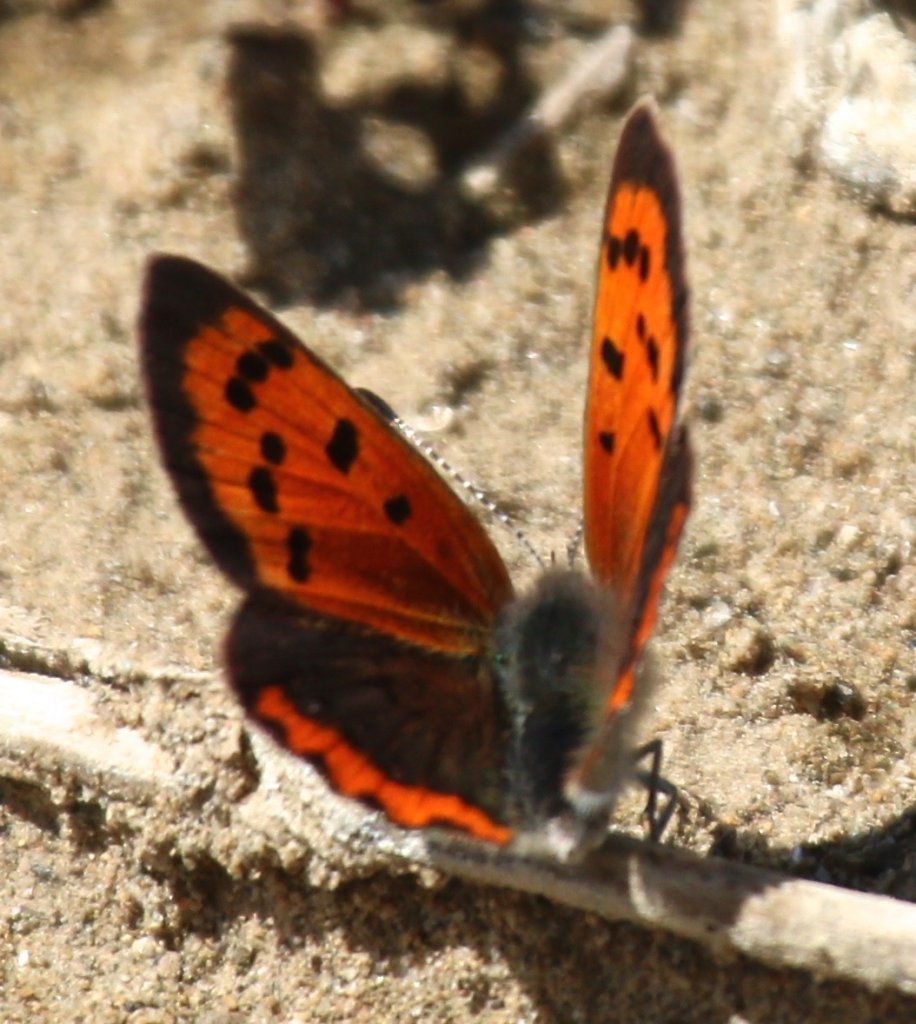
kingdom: Animalia
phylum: Arthropoda
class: Insecta
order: Lepidoptera
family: Lycaenidae
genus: Lycaena
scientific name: Lycaena phlaeas
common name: American Copper
